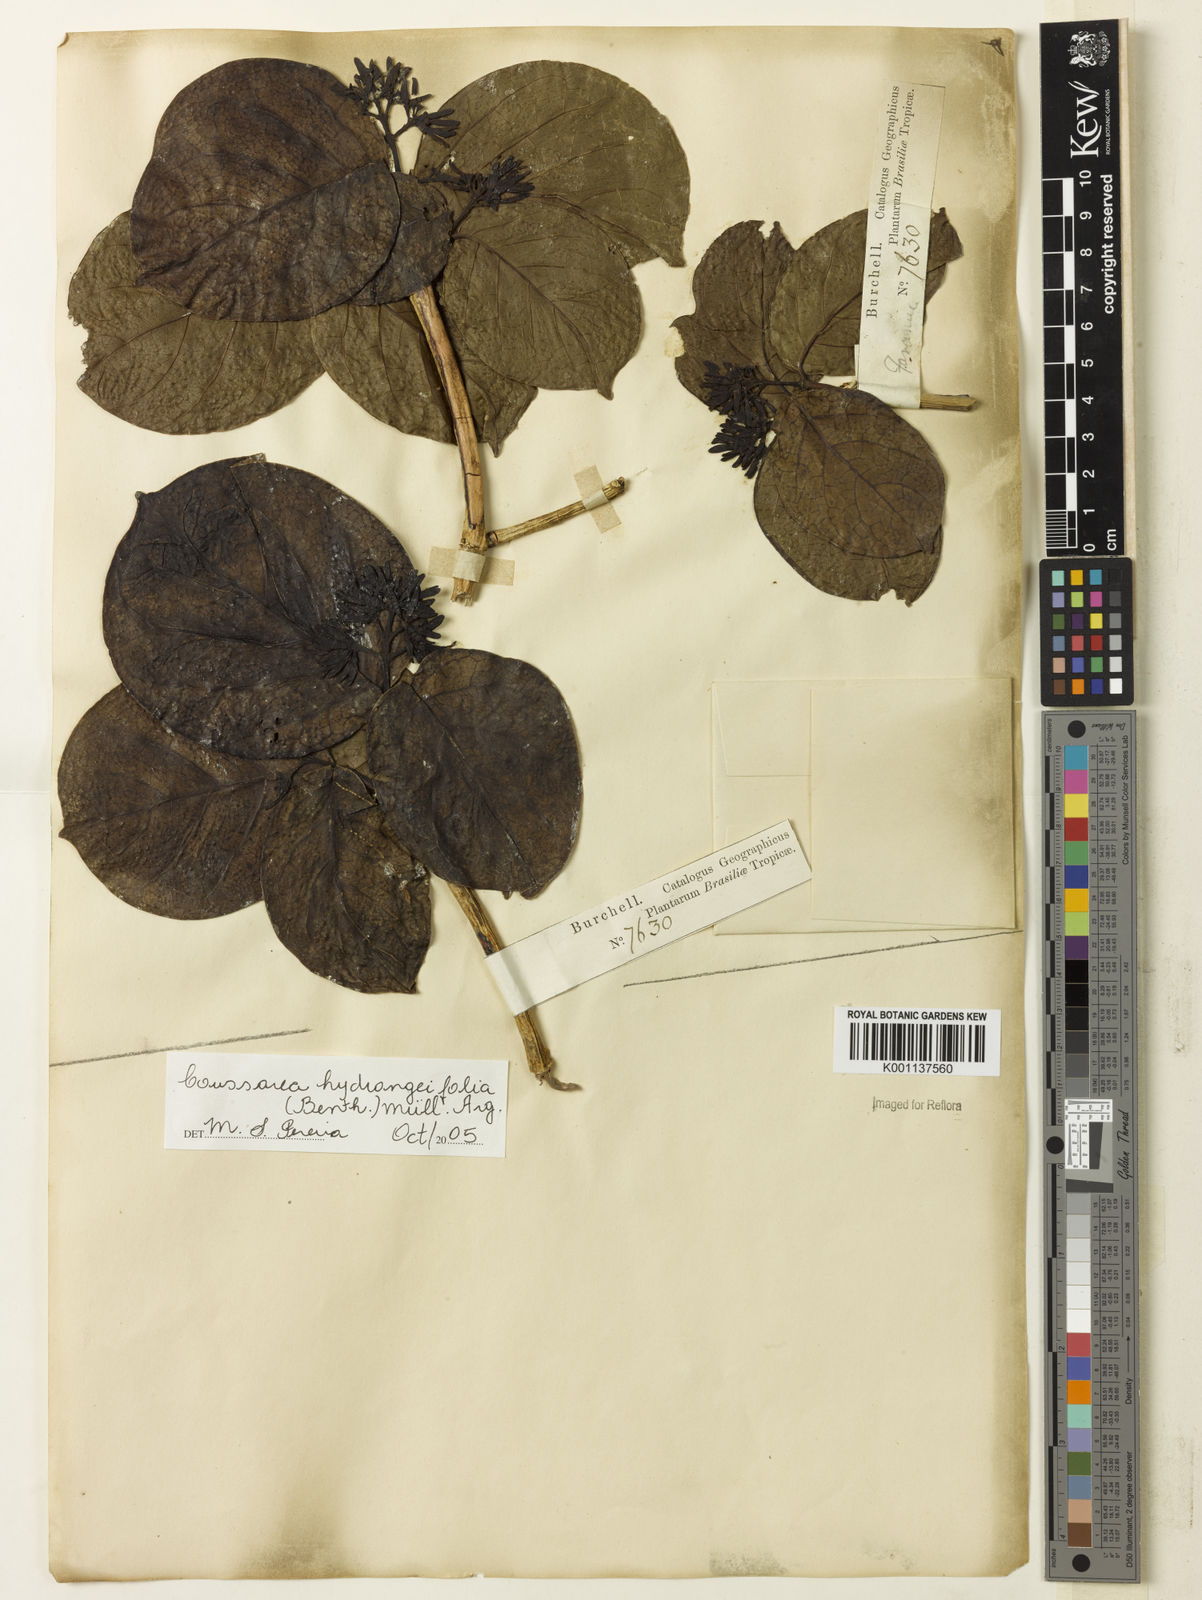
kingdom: Plantae
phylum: Tracheophyta
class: Magnoliopsida
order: Gentianales
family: Rubiaceae
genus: Coussarea
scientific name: Coussarea
